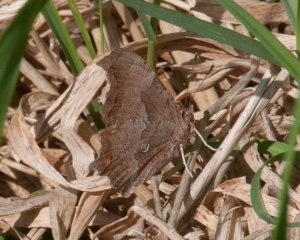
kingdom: Animalia
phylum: Arthropoda
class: Insecta
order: Lepidoptera
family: Nymphalidae
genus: Polygonia
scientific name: Polygonia comma
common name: Eastern Comma
